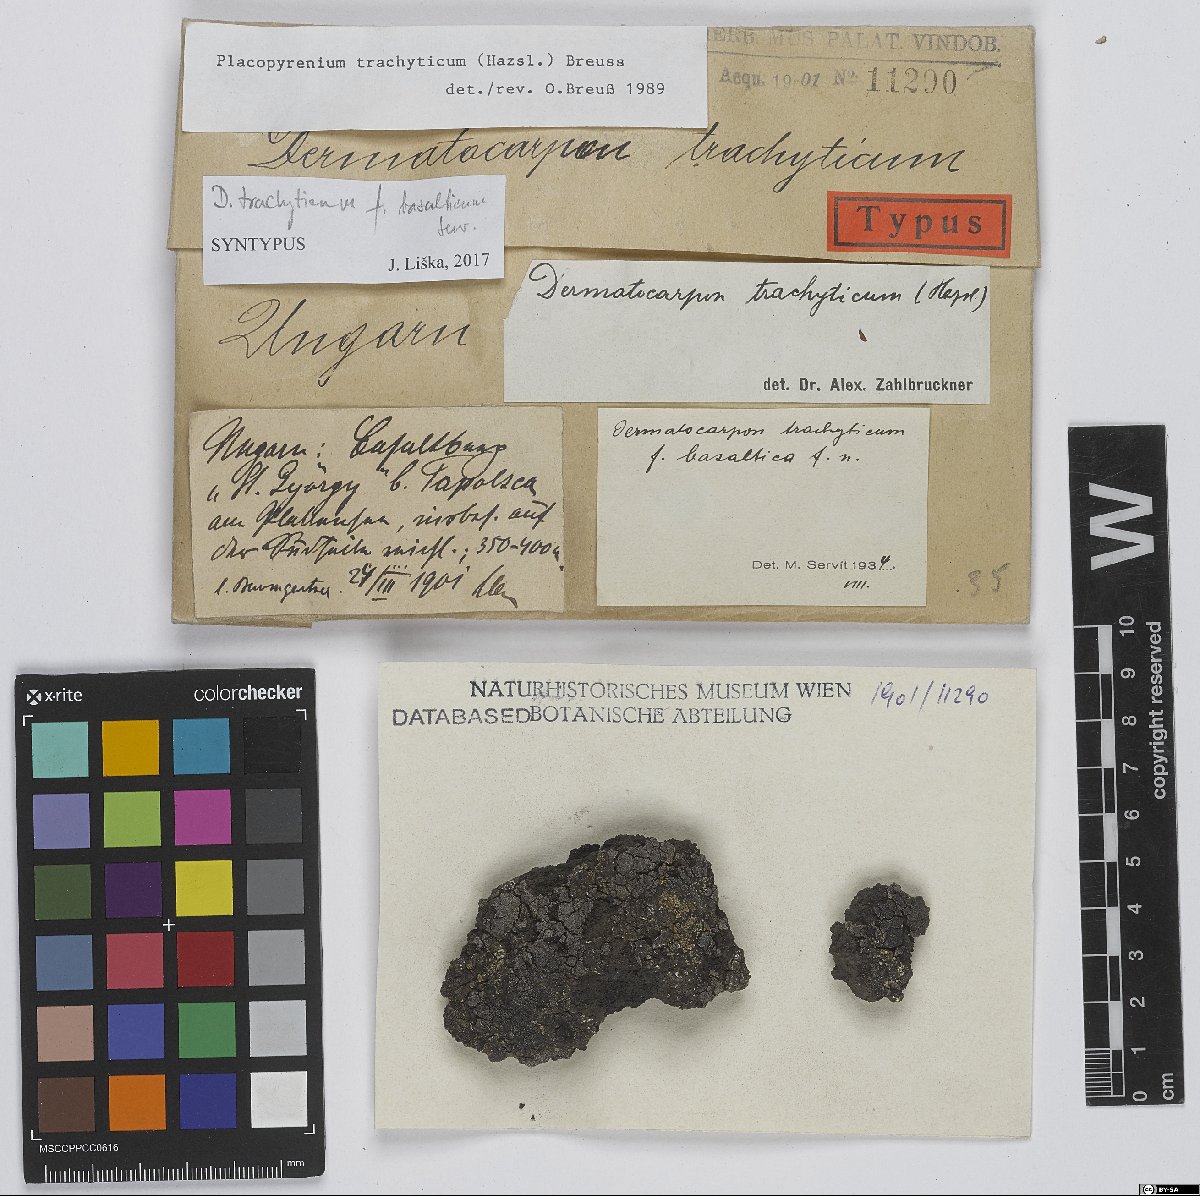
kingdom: Fungi
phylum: Ascomycota
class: Eurotiomycetes
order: Verrucariales
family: Verrucariaceae
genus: Placopyrenium
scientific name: Placopyrenium trachyticum
